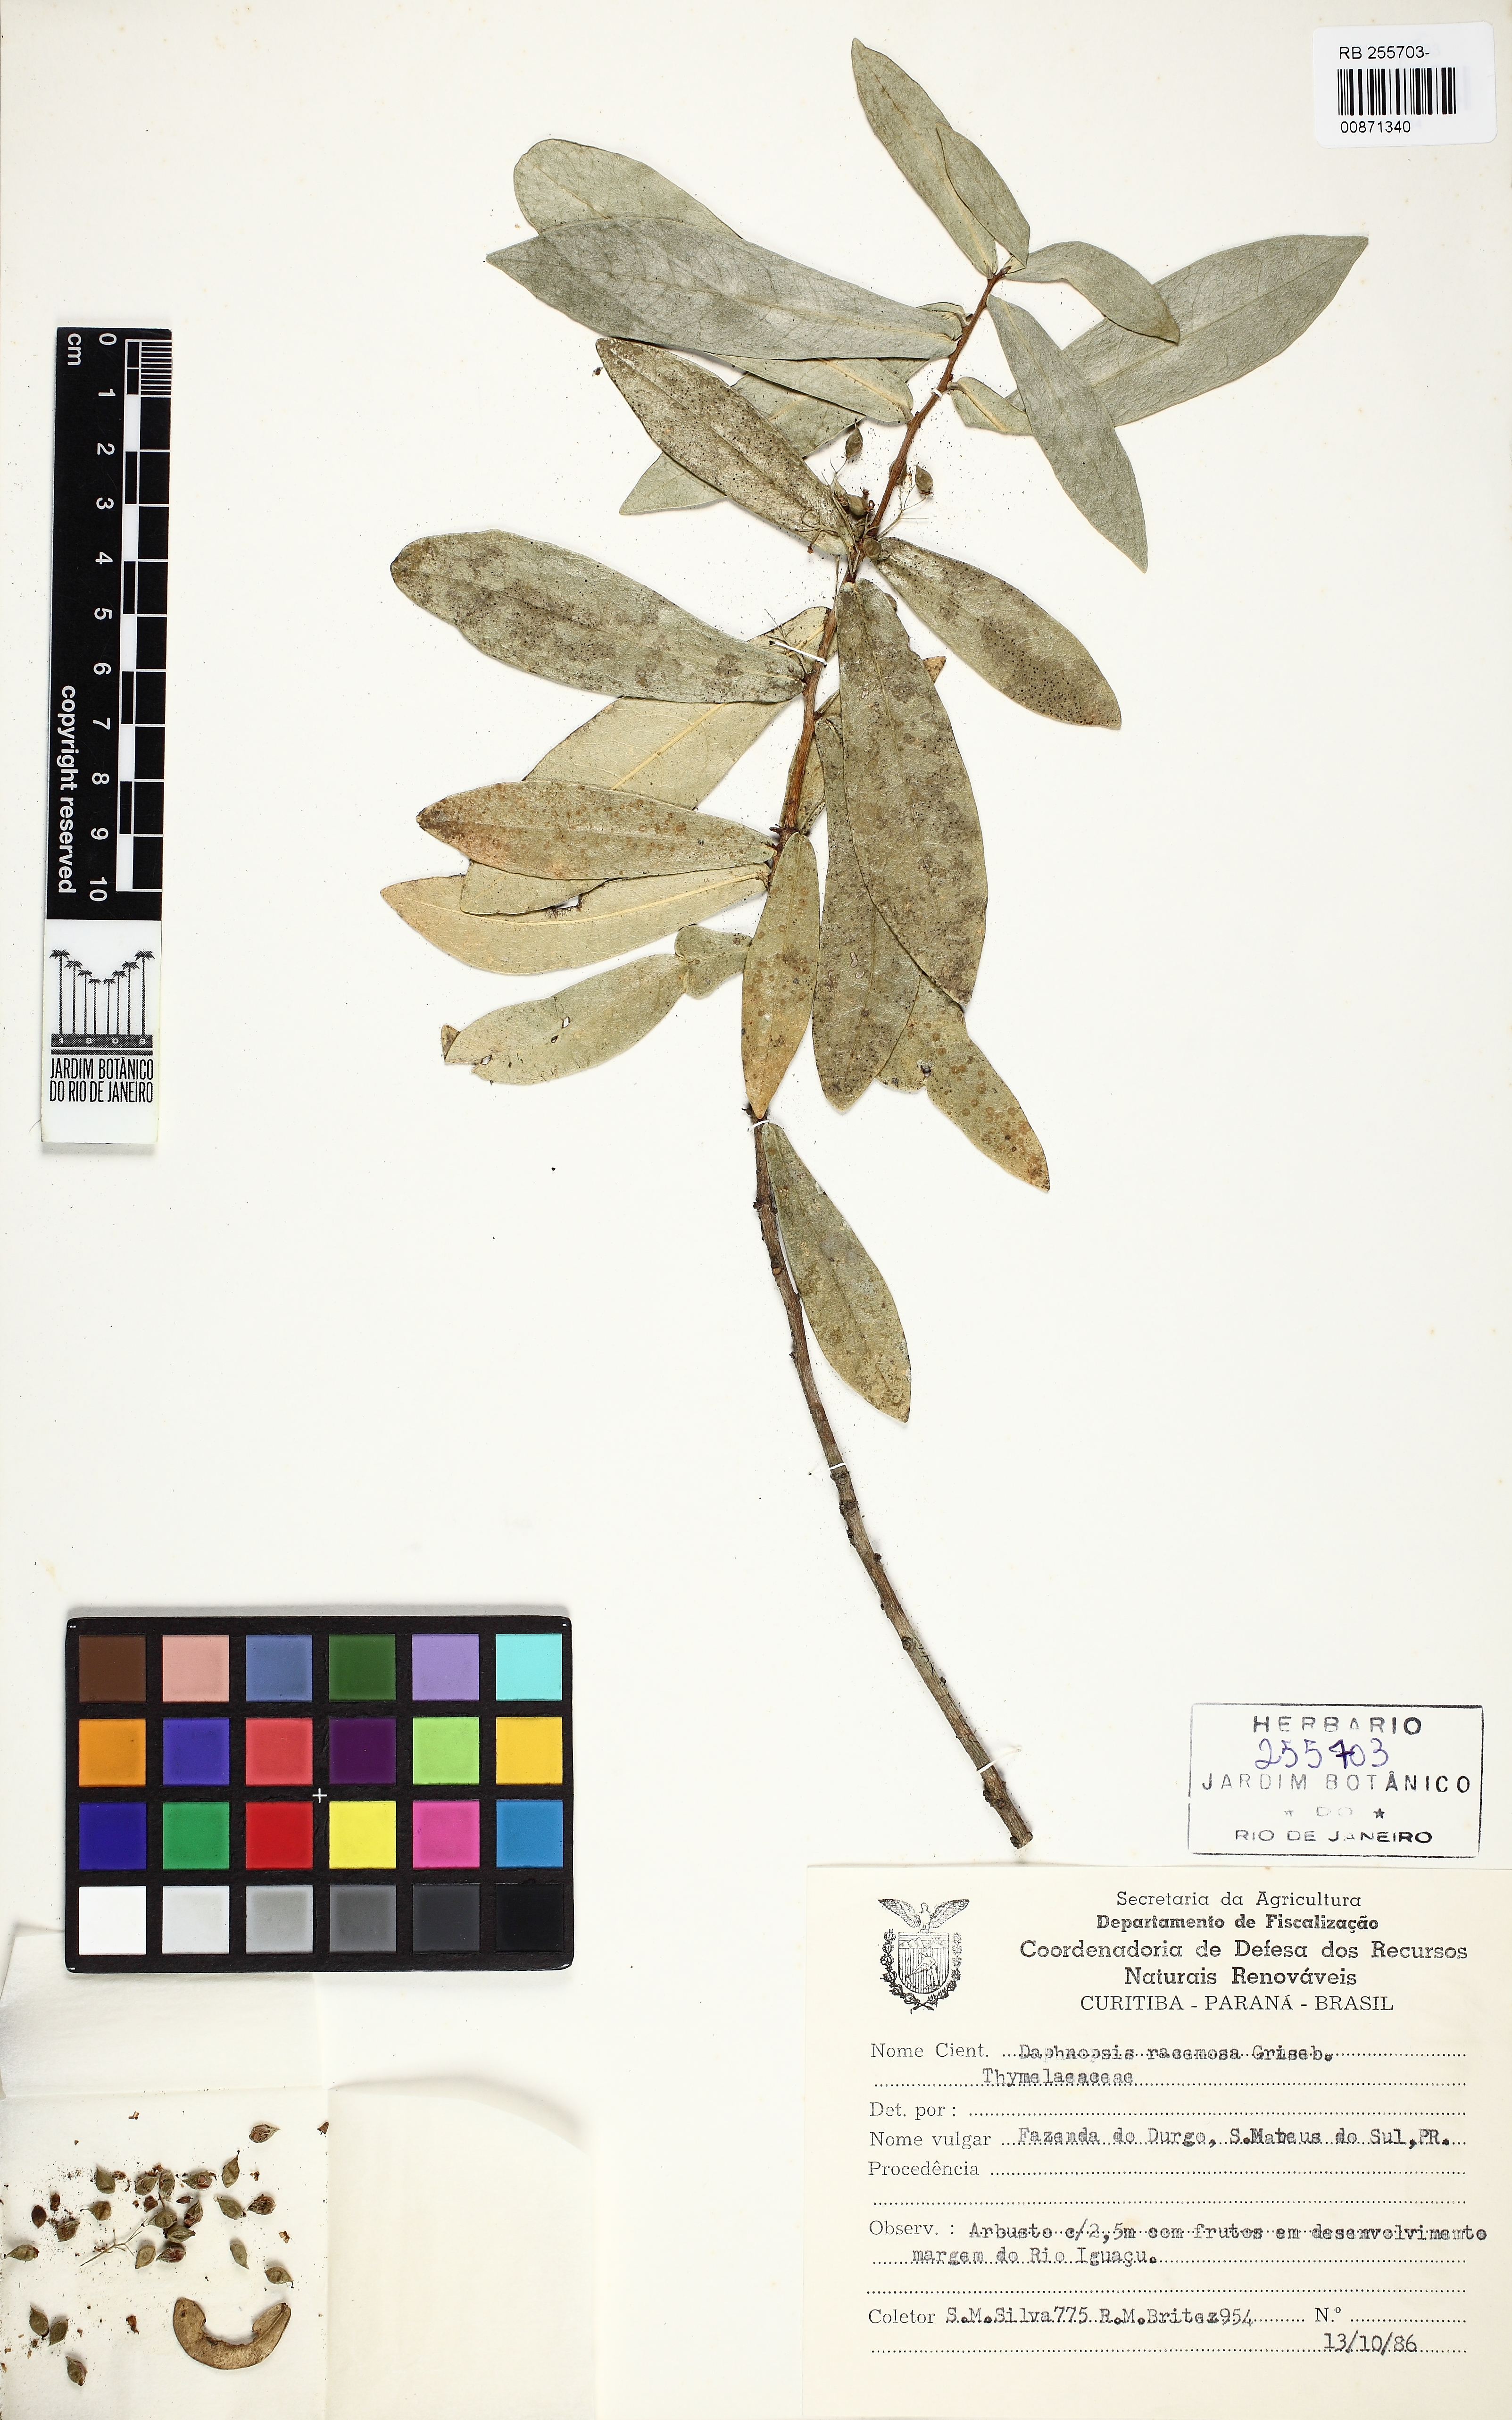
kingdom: Plantae
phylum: Tracheophyta
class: Magnoliopsida
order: Malvales
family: Thymelaeaceae
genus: Daphnopsis
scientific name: Daphnopsis racemosa
